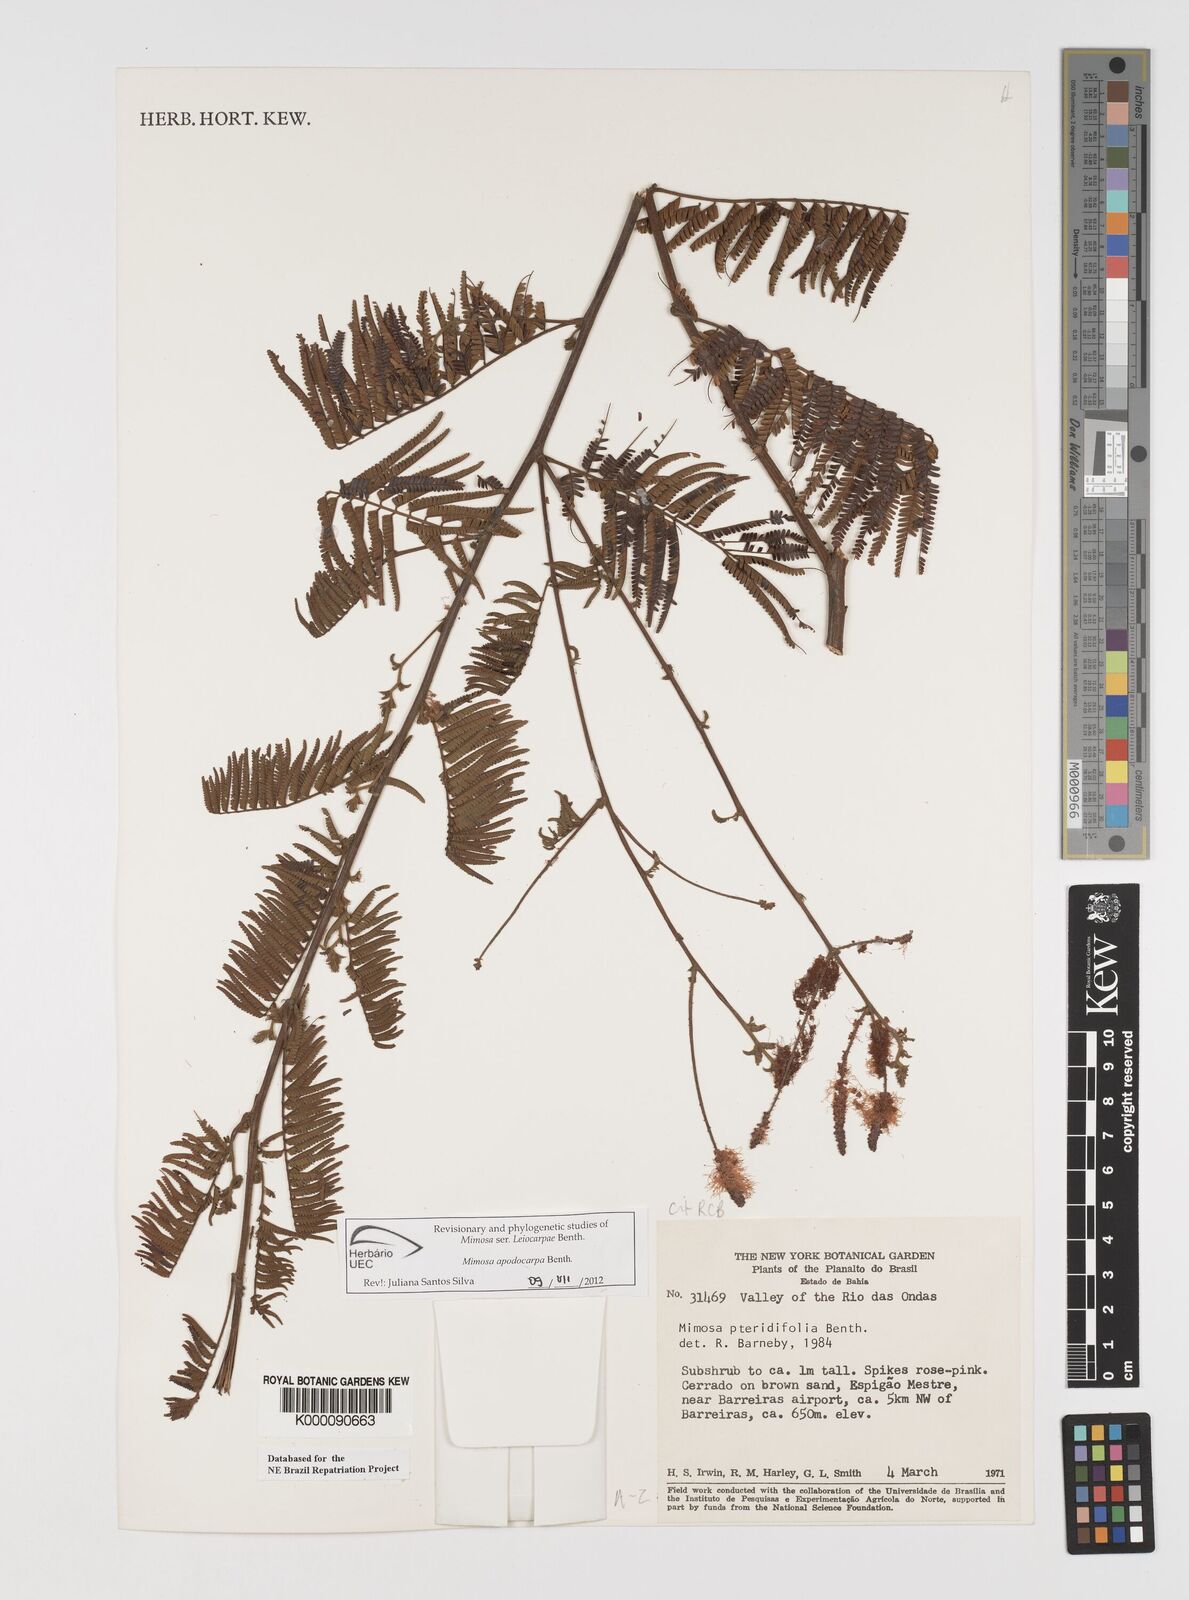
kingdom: Plantae
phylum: Tracheophyta
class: Magnoliopsida
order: Fabales
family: Fabaceae
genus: Mimosa
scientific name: Mimosa pteridifolia
